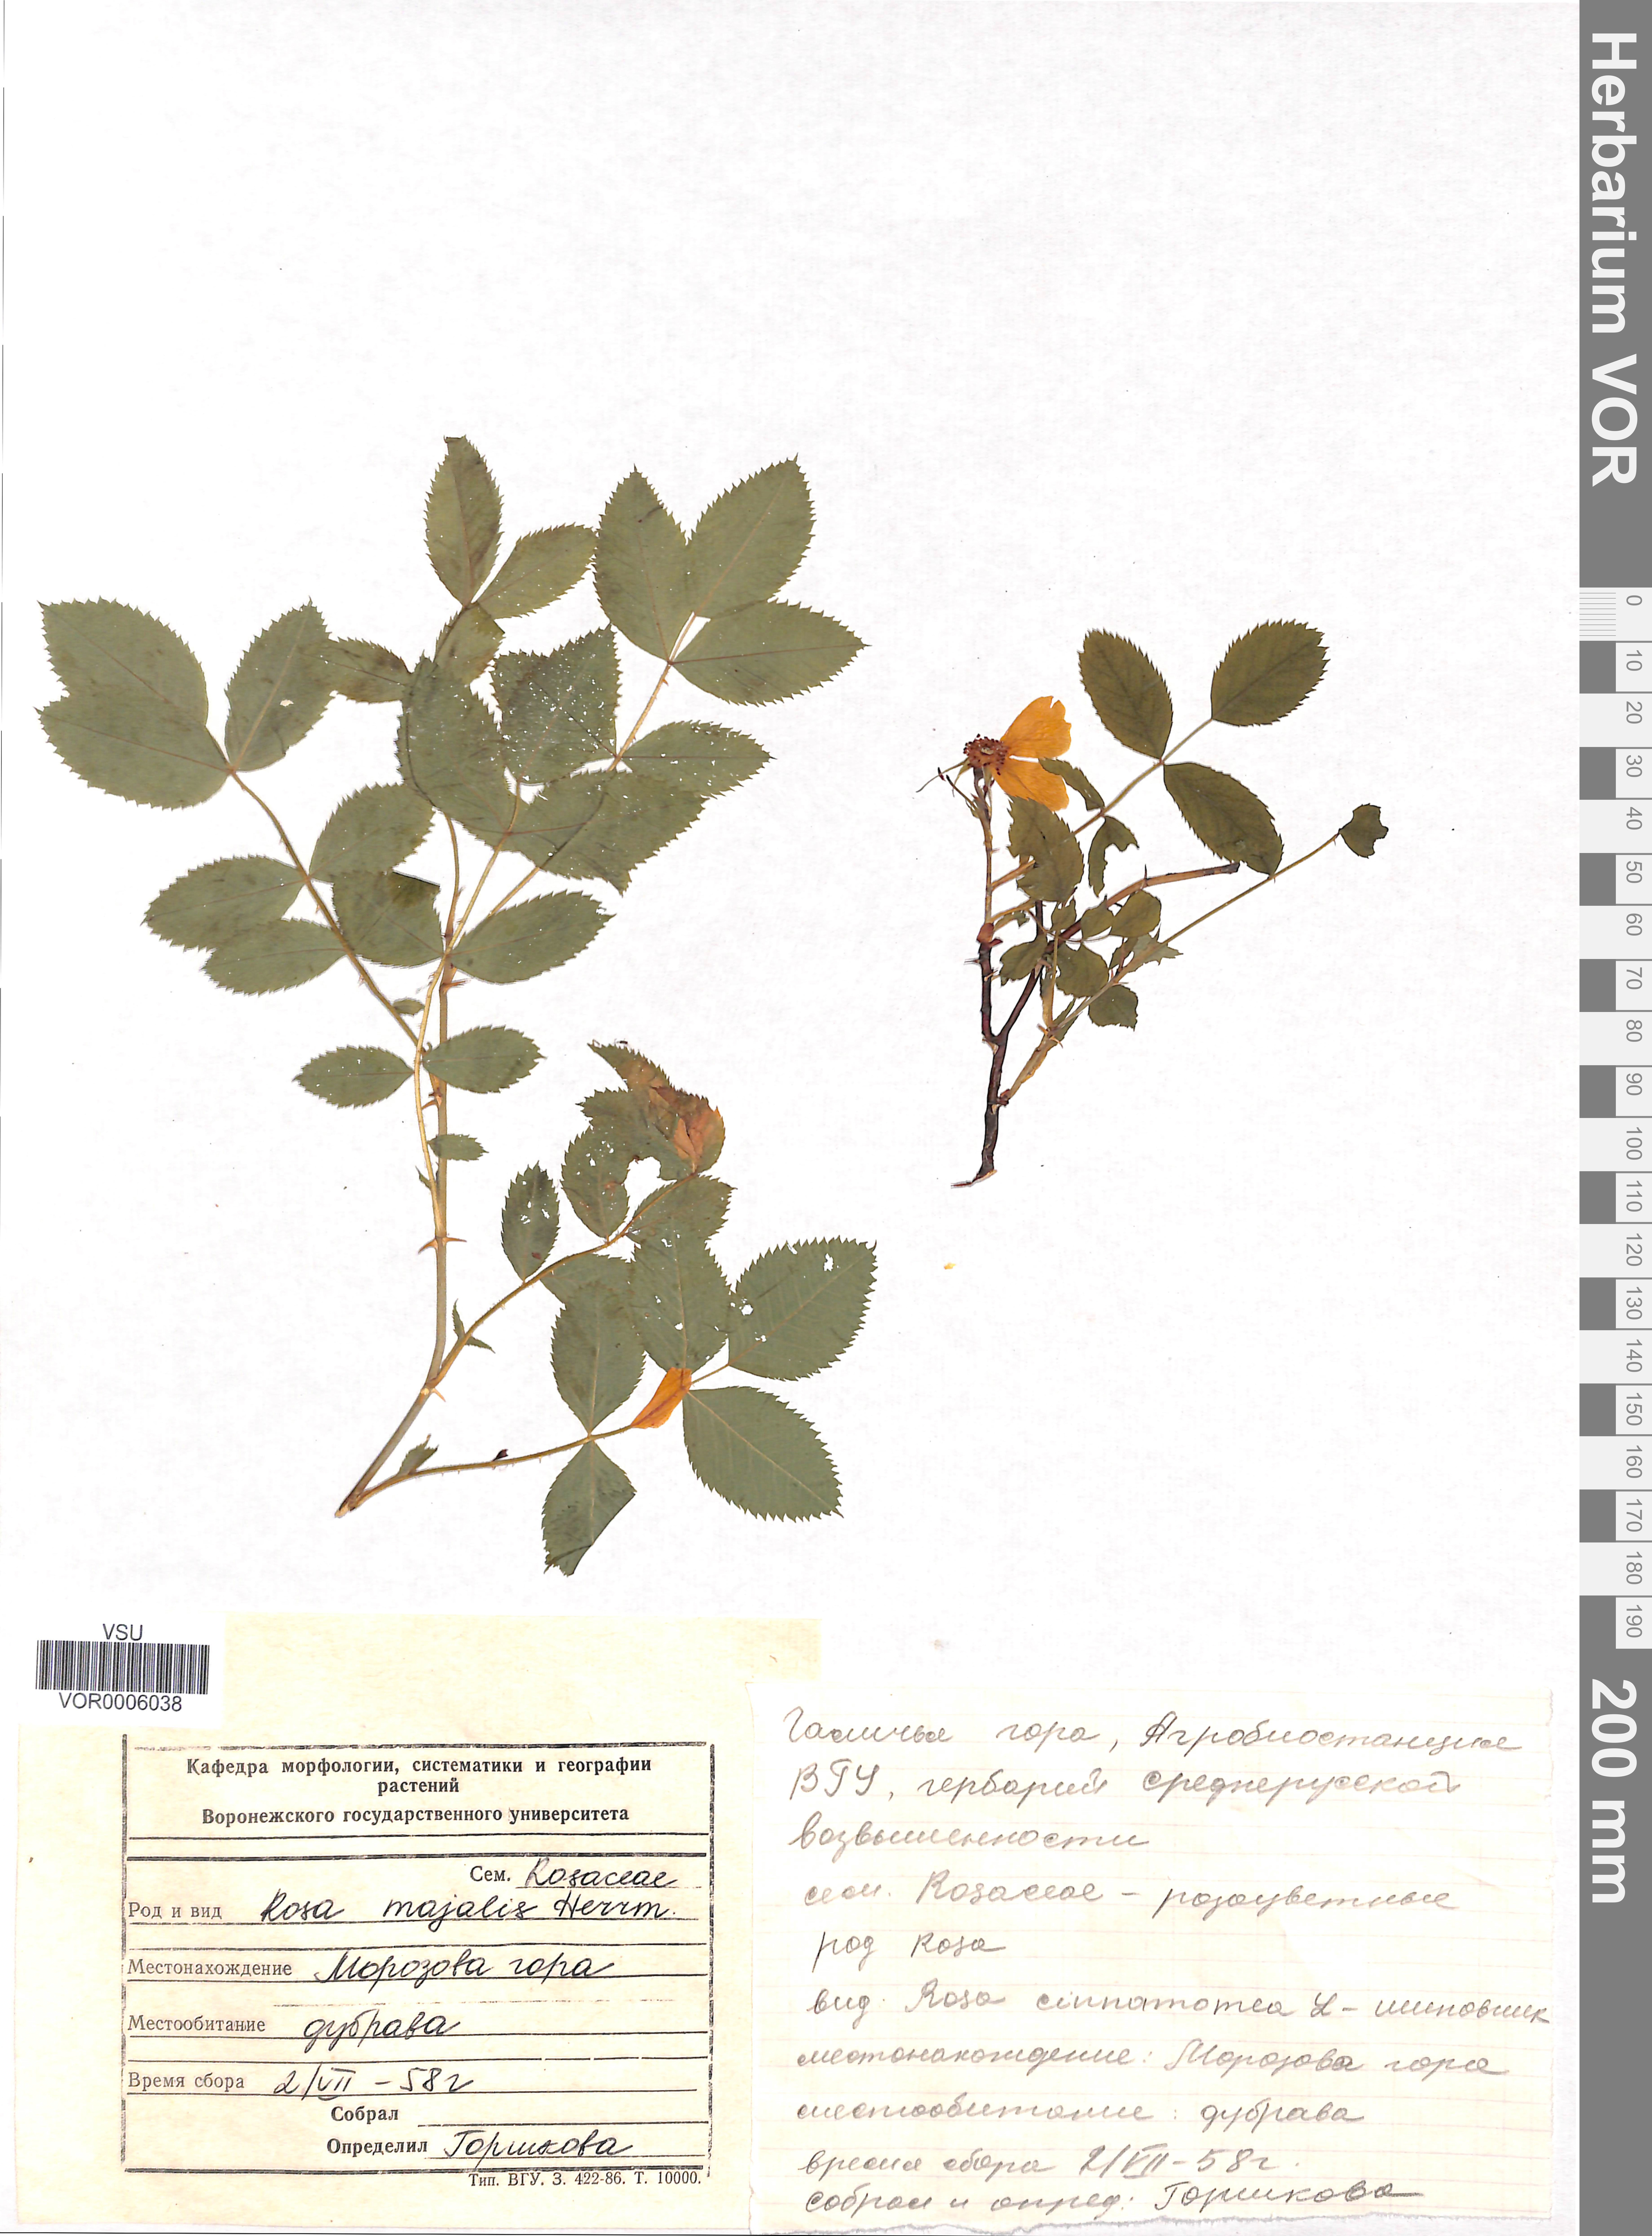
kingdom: Plantae
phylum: Tracheophyta
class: Magnoliopsida
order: Rosales
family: Rosaceae
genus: Rosa
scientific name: Rosa majalis
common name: Cinnamon rose
